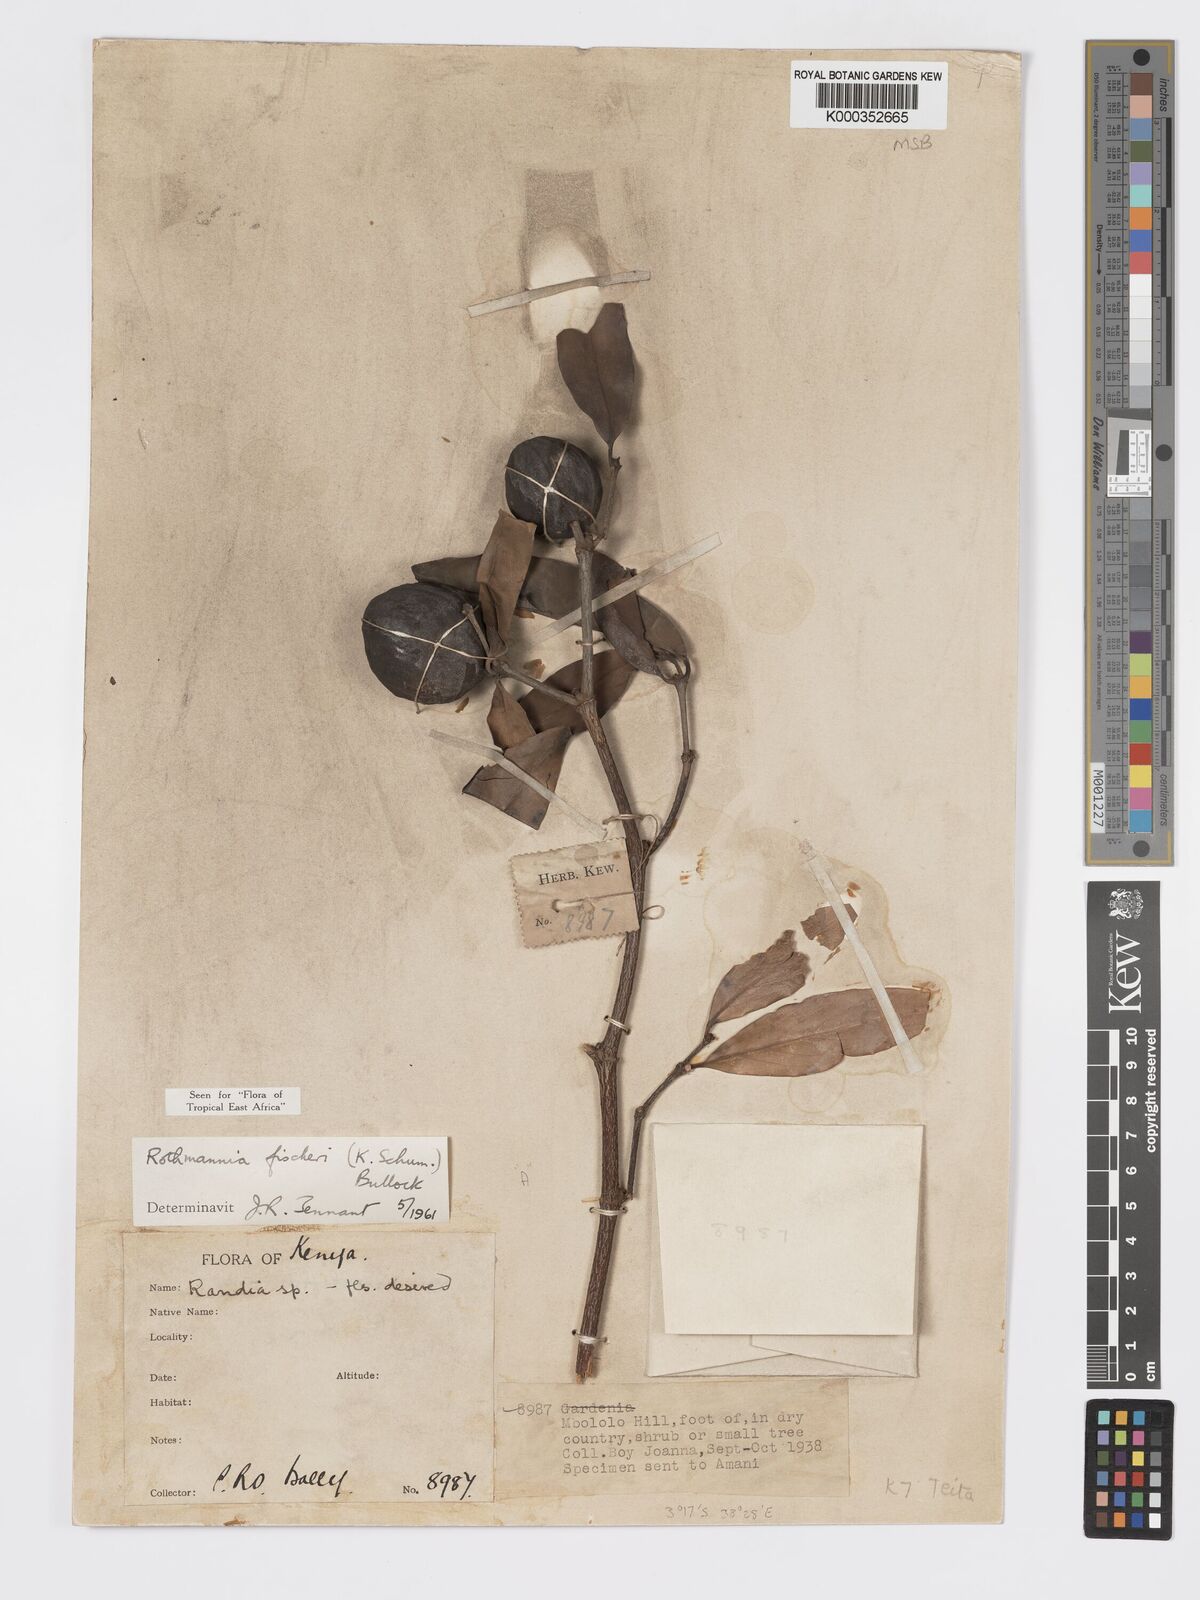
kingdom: Plantae
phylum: Tracheophyta
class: Magnoliopsida
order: Gentianales
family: Rubiaceae
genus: Rothmannia
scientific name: Rothmannia fischeri
